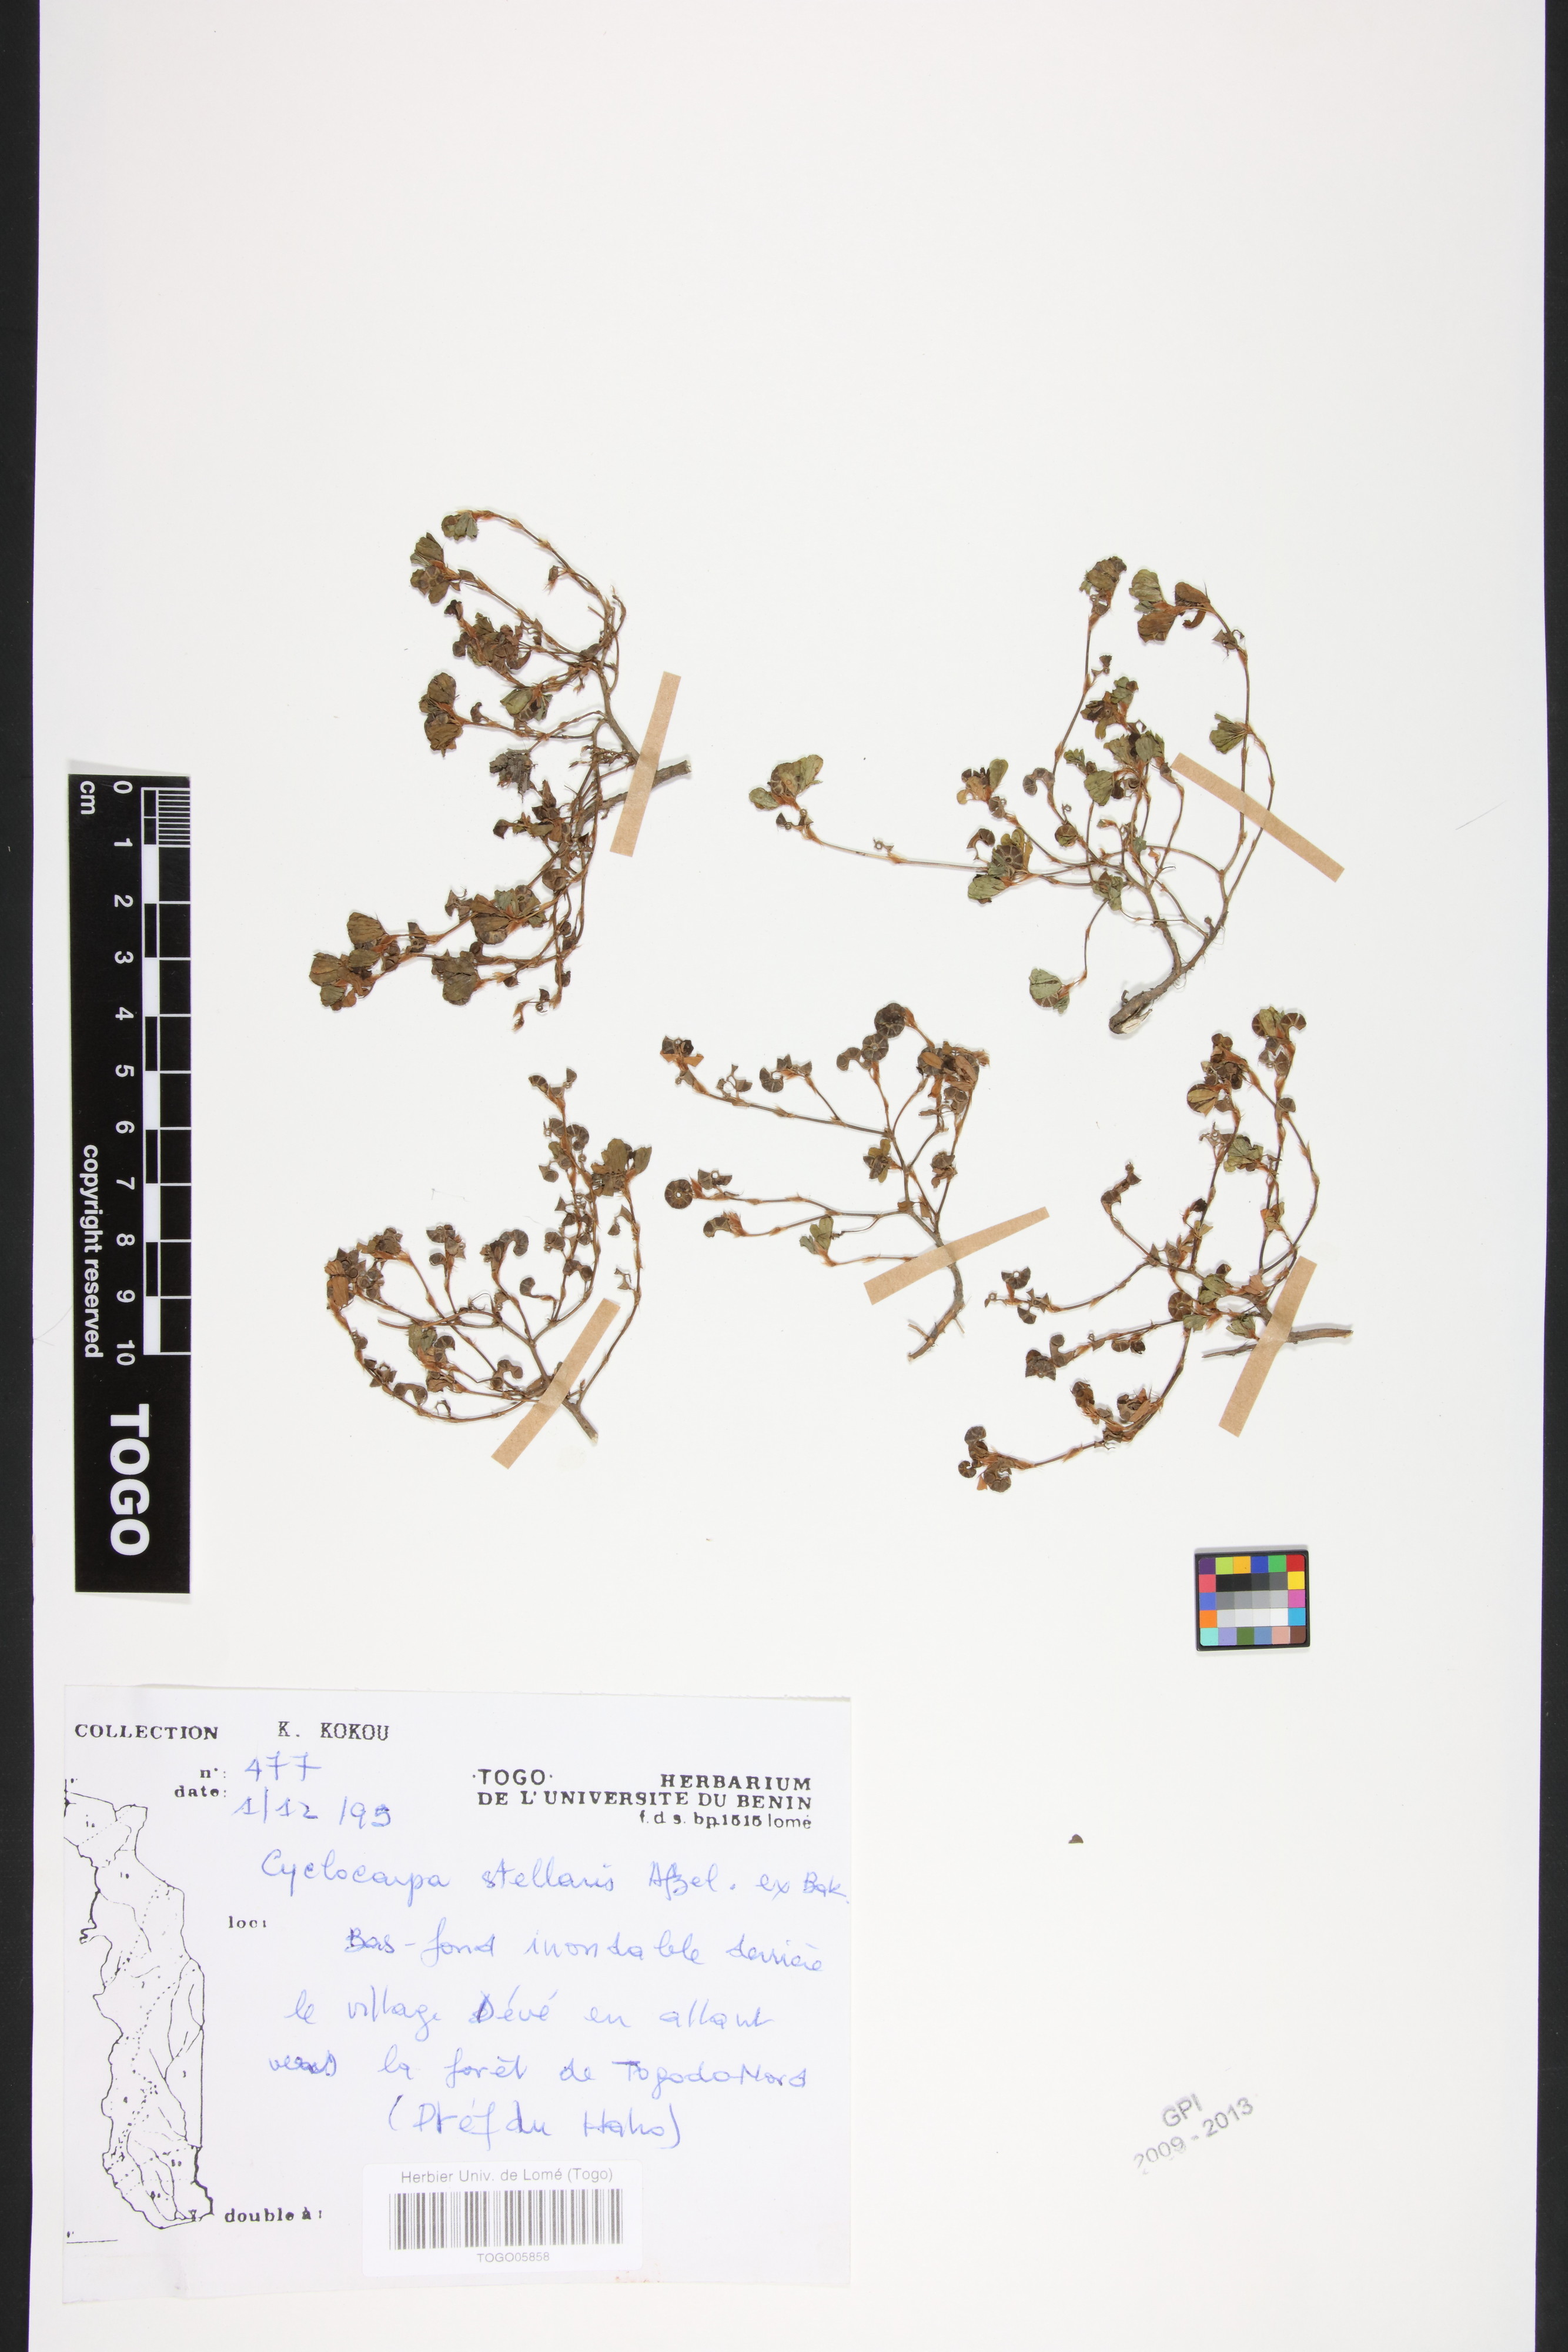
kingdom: Plantae
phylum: Tracheophyta
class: Magnoliopsida
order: Fabales
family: Fabaceae
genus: Cyclocarpa
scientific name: Cyclocarpa stellaris
